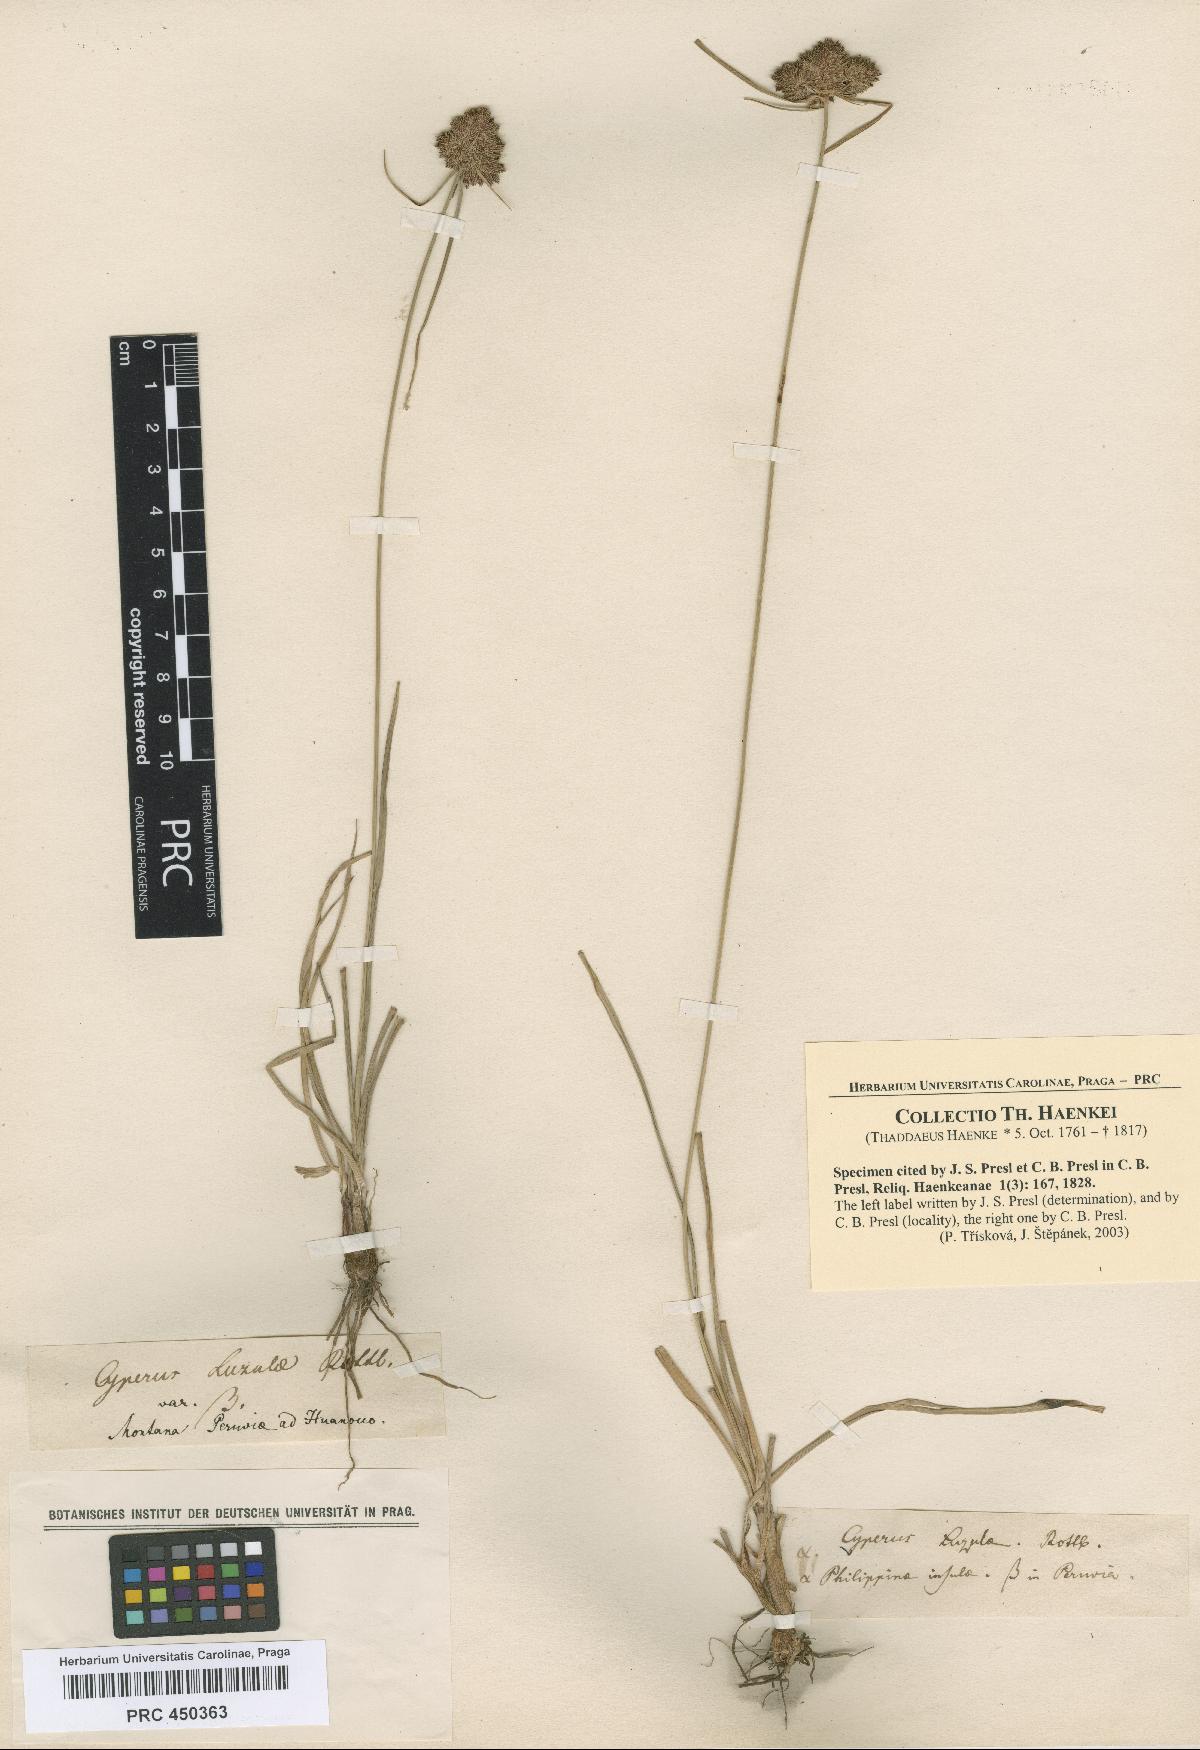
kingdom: Plantae
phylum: Tracheophyta
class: Liliopsida
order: Poales
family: Cyperaceae
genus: Cyperus
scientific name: Cyperus luzulae
